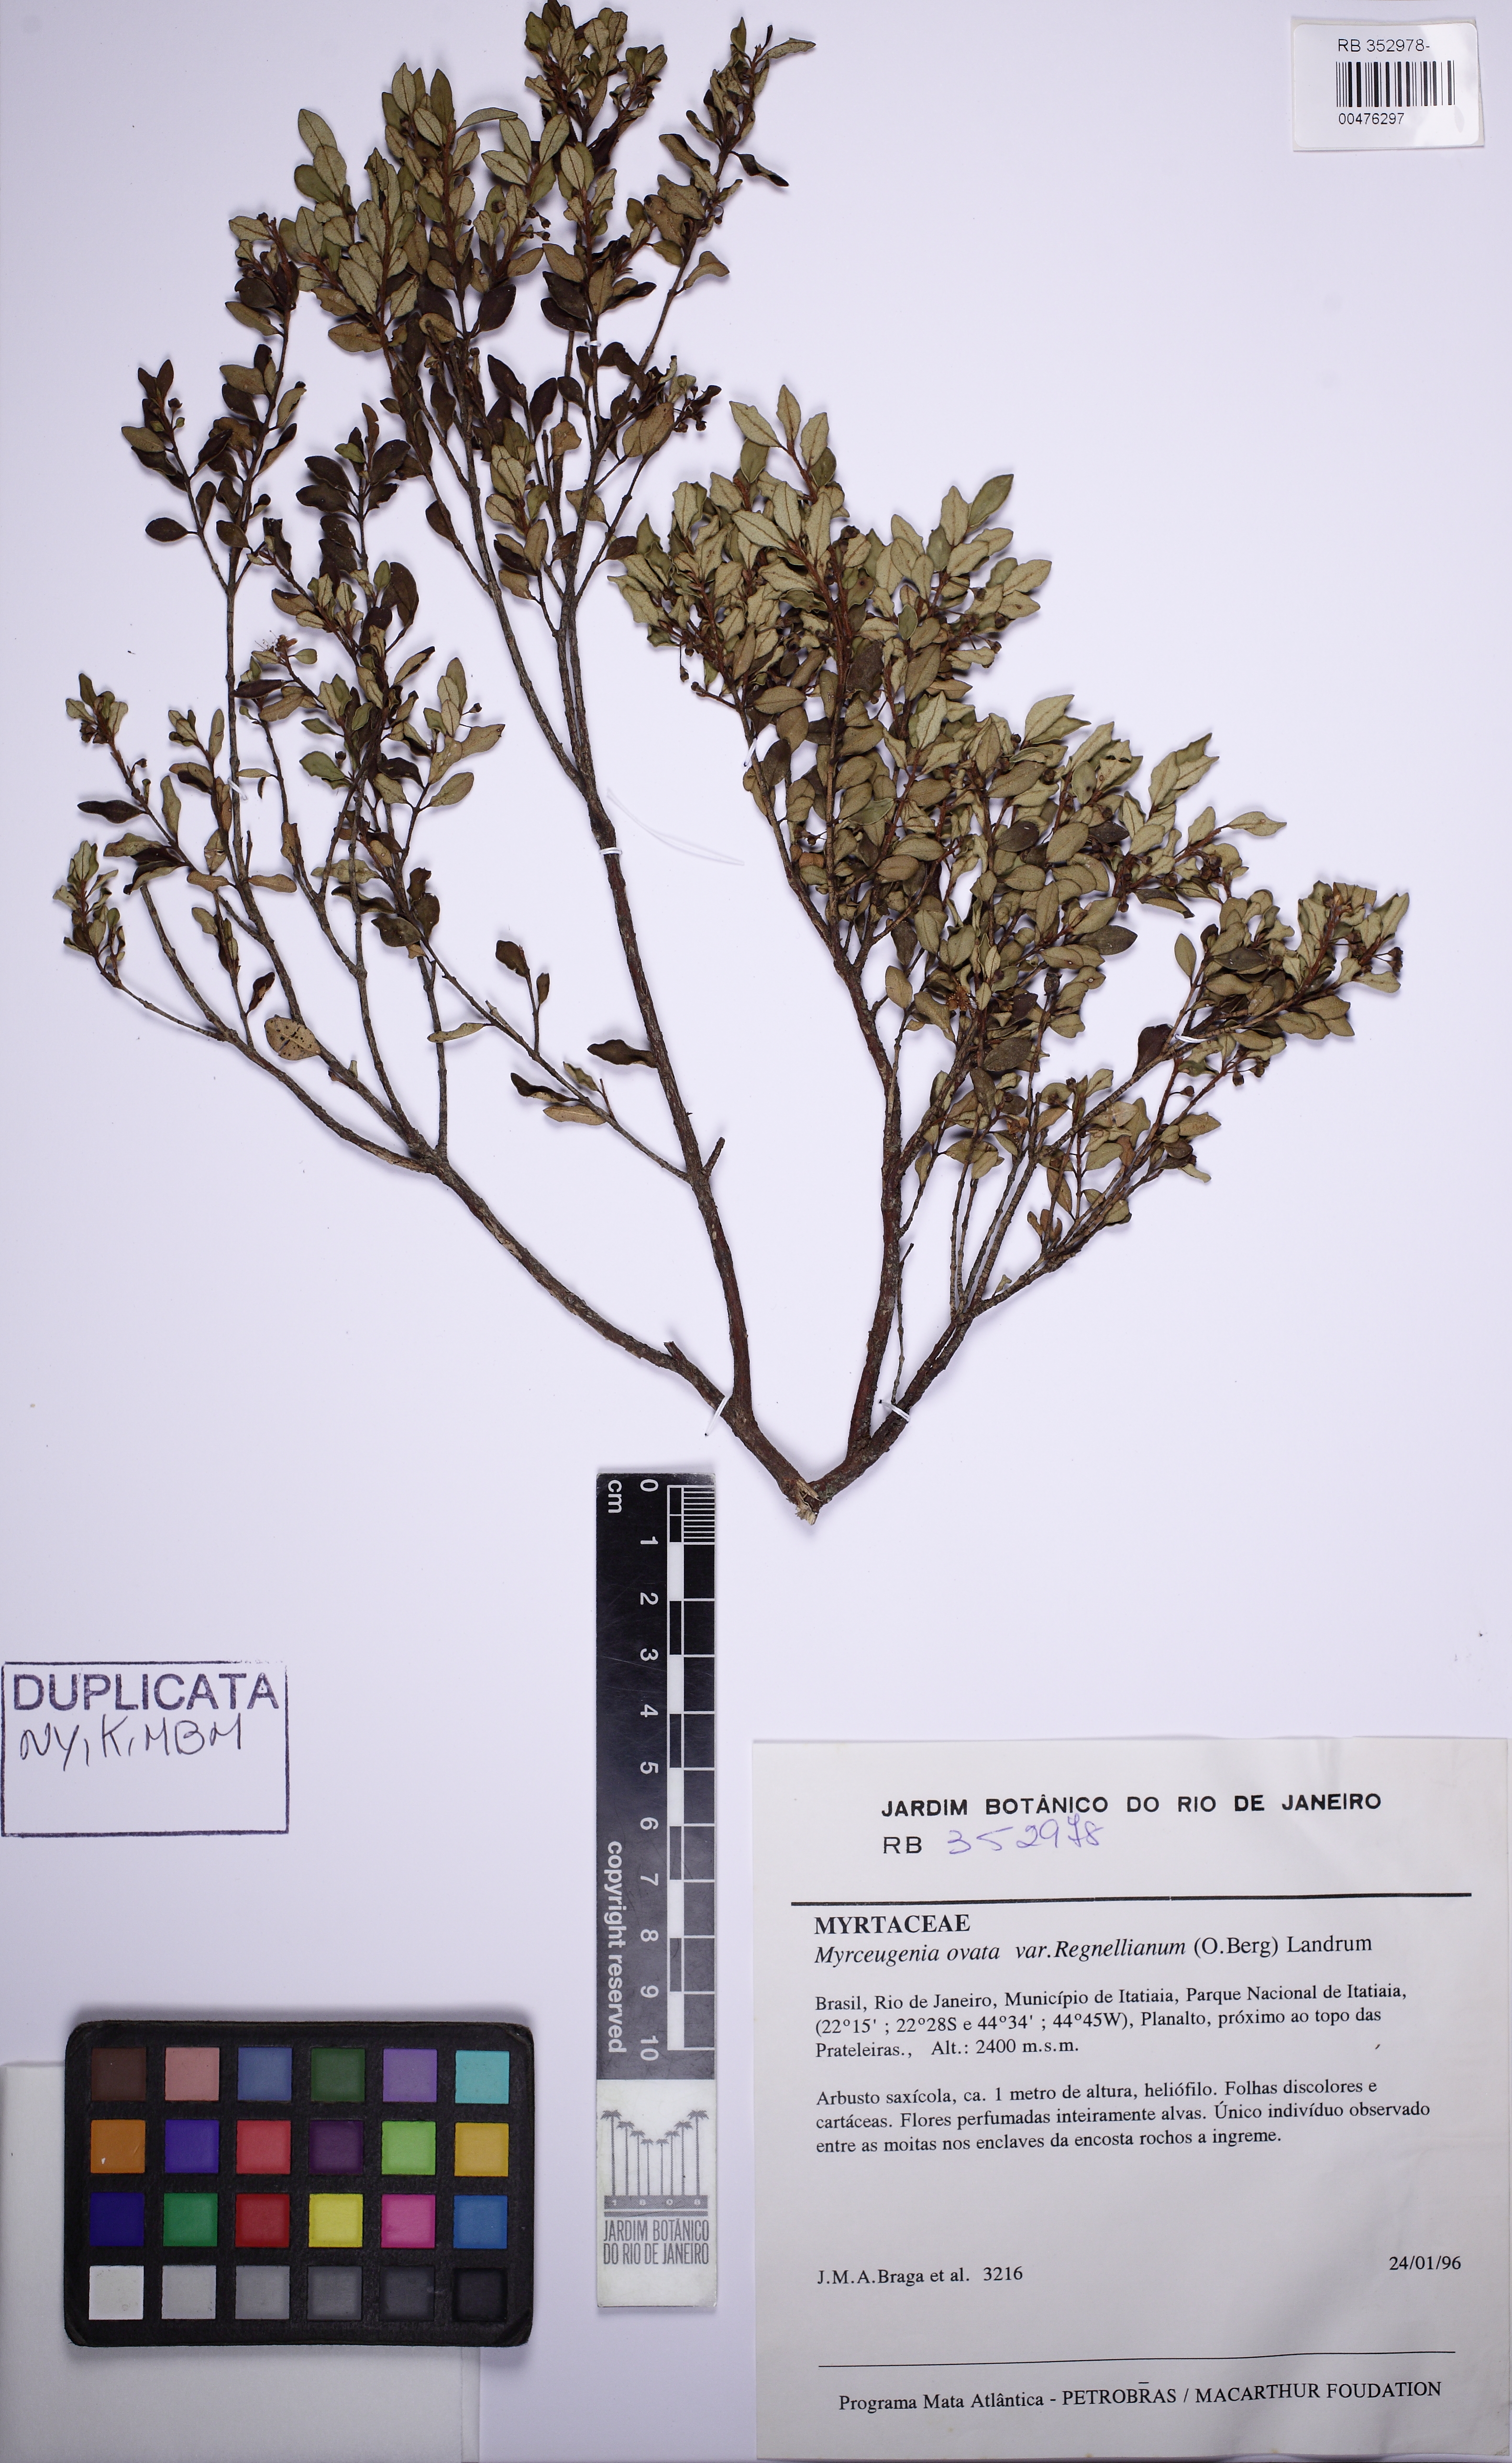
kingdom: Plantae
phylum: Tracheophyta
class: Magnoliopsida
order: Myrtales
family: Myrtaceae
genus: Myrceugenia
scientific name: Myrceugenia ovata
